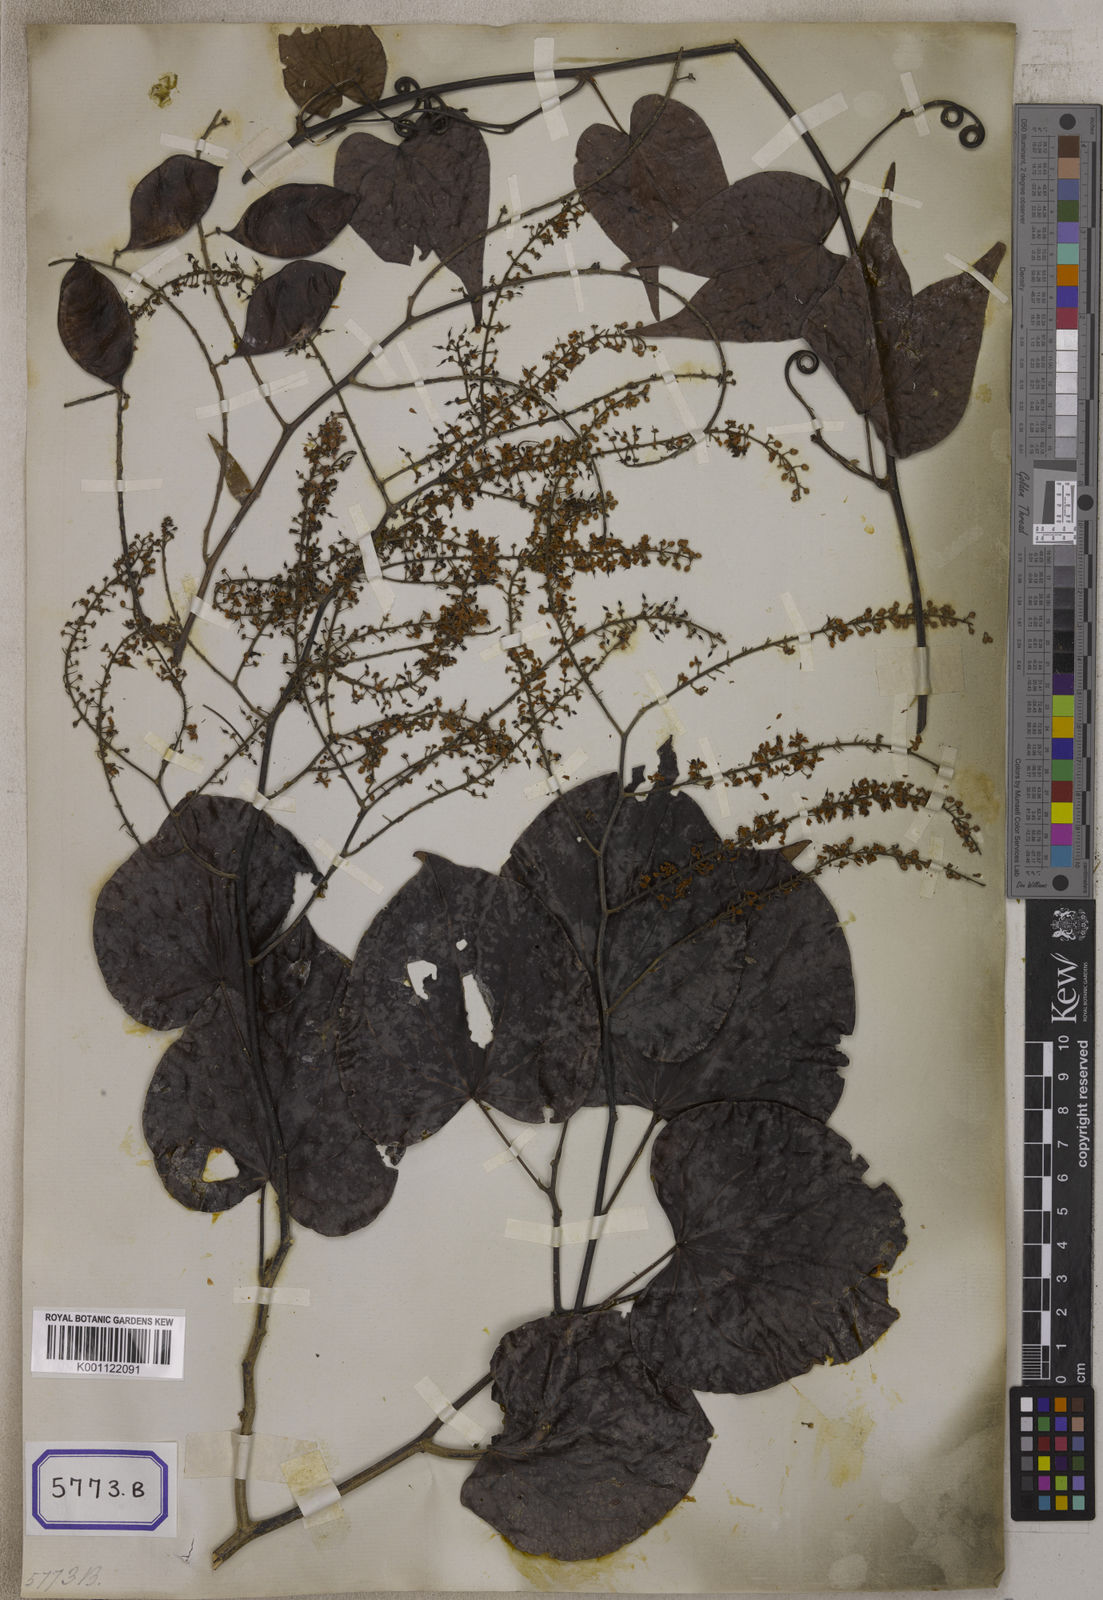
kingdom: Plantae
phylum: Tracheophyta
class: Magnoliopsida
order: Fabales
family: Fabaceae
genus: Phanera
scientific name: Phanera scandens
